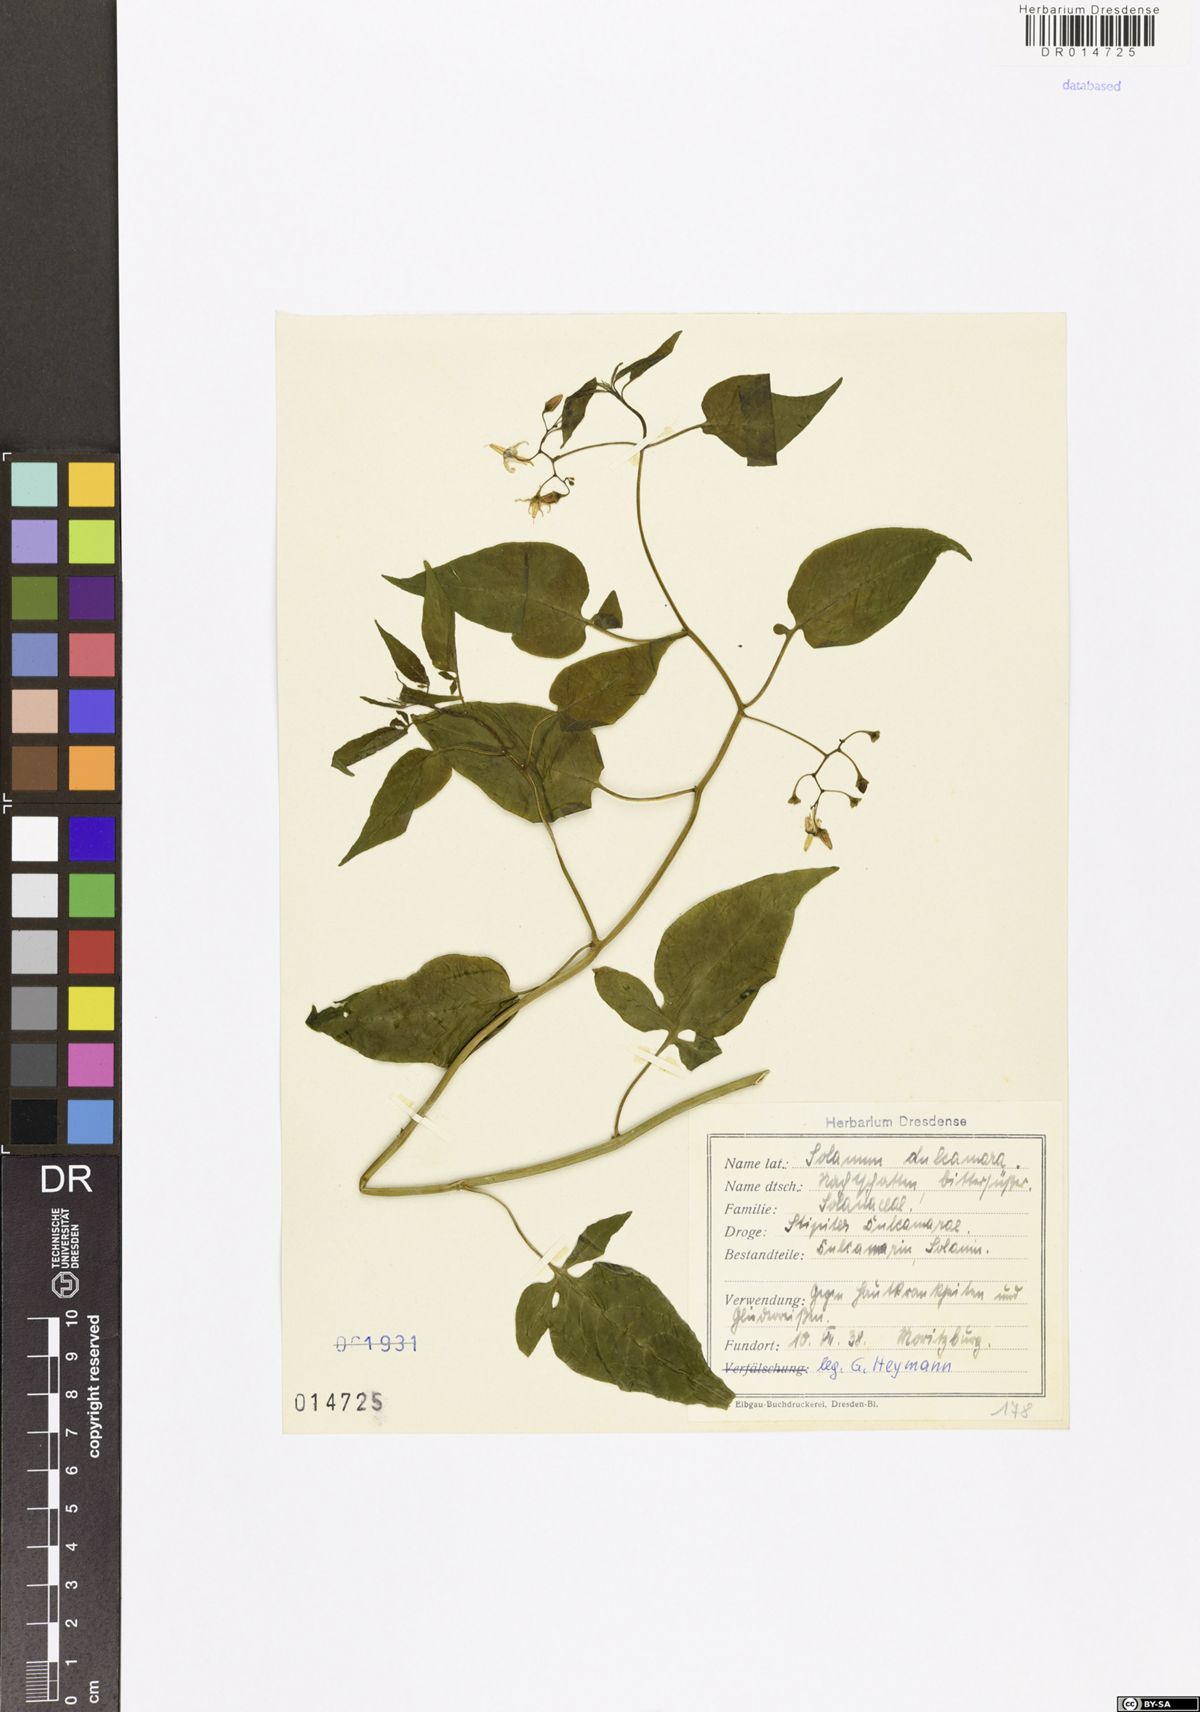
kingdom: Plantae
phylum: Tracheophyta
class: Magnoliopsida
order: Solanales
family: Solanaceae
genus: Solanum
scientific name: Solanum dulcamara
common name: Climbing nightshade
